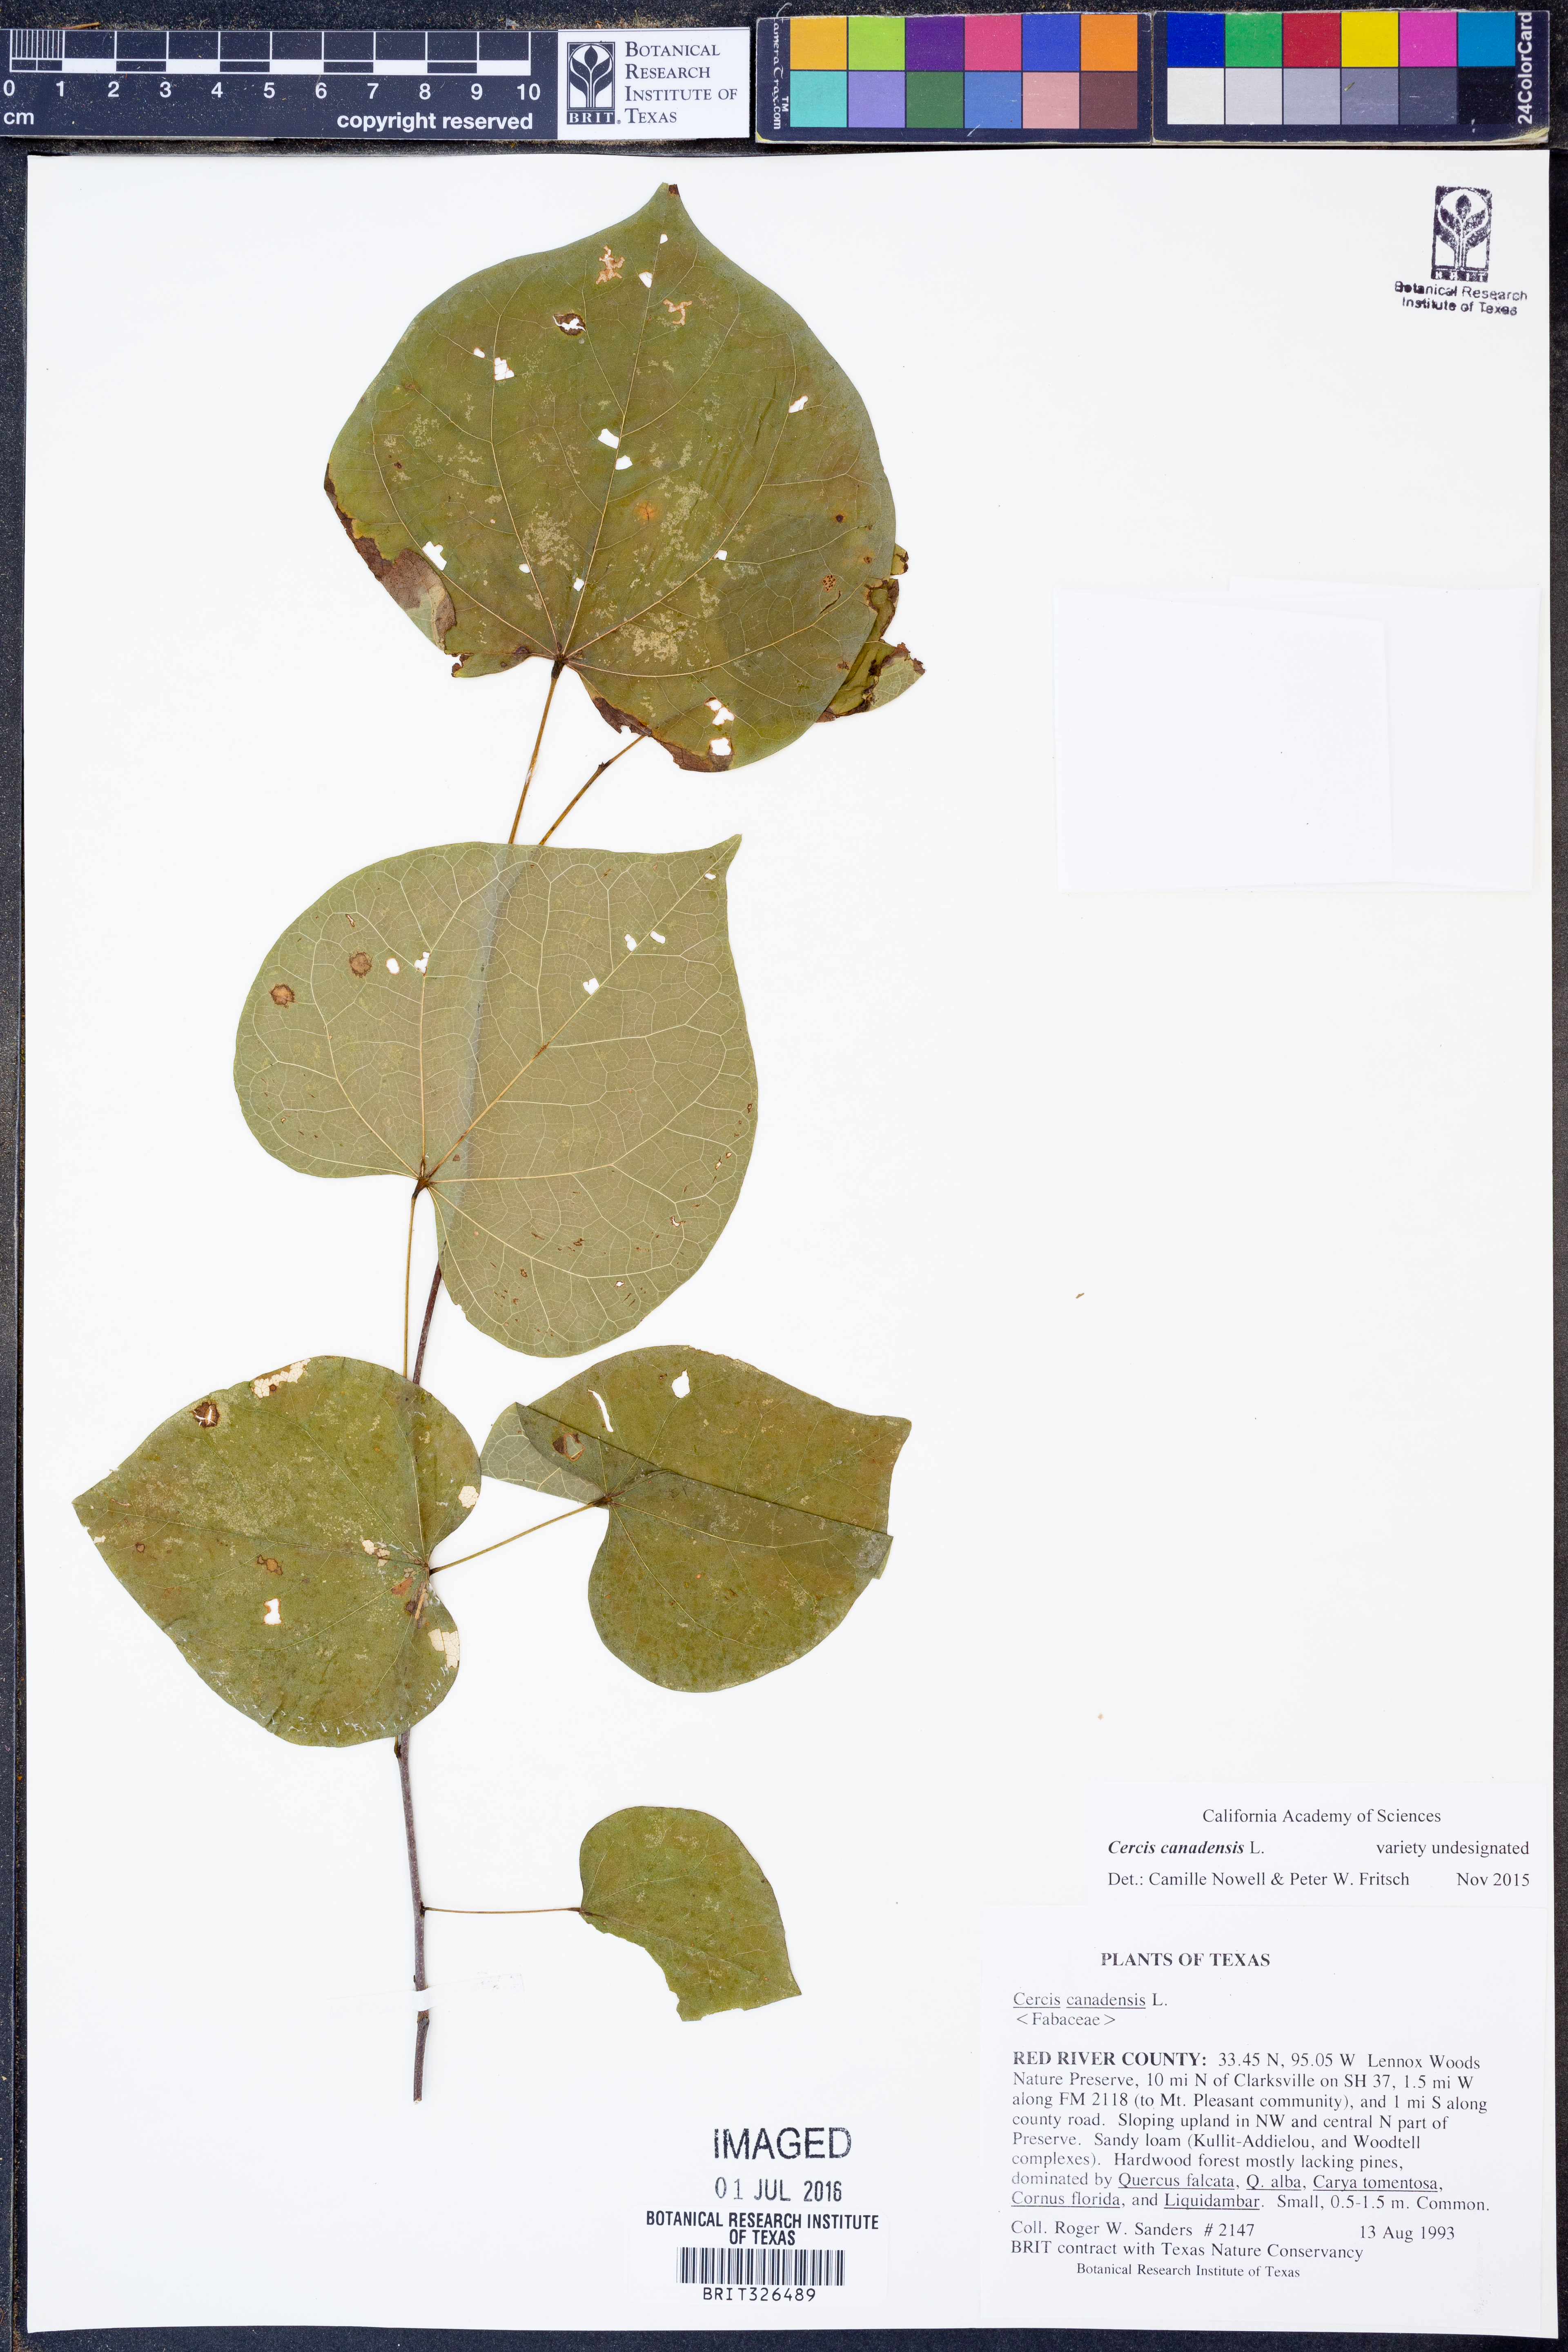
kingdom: Plantae
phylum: Tracheophyta
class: Magnoliopsida
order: Fabales
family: Fabaceae
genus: Cercis
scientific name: Cercis canadensis
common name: Eastern redbud
